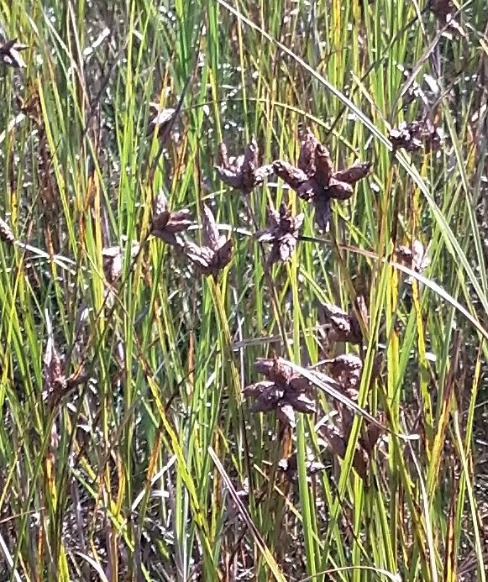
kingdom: Plantae
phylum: Tracheophyta
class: Liliopsida
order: Poales
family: Cyperaceae
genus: Bolboschoenus
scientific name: Bolboschoenus maritimus
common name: Strand-kogleaks
